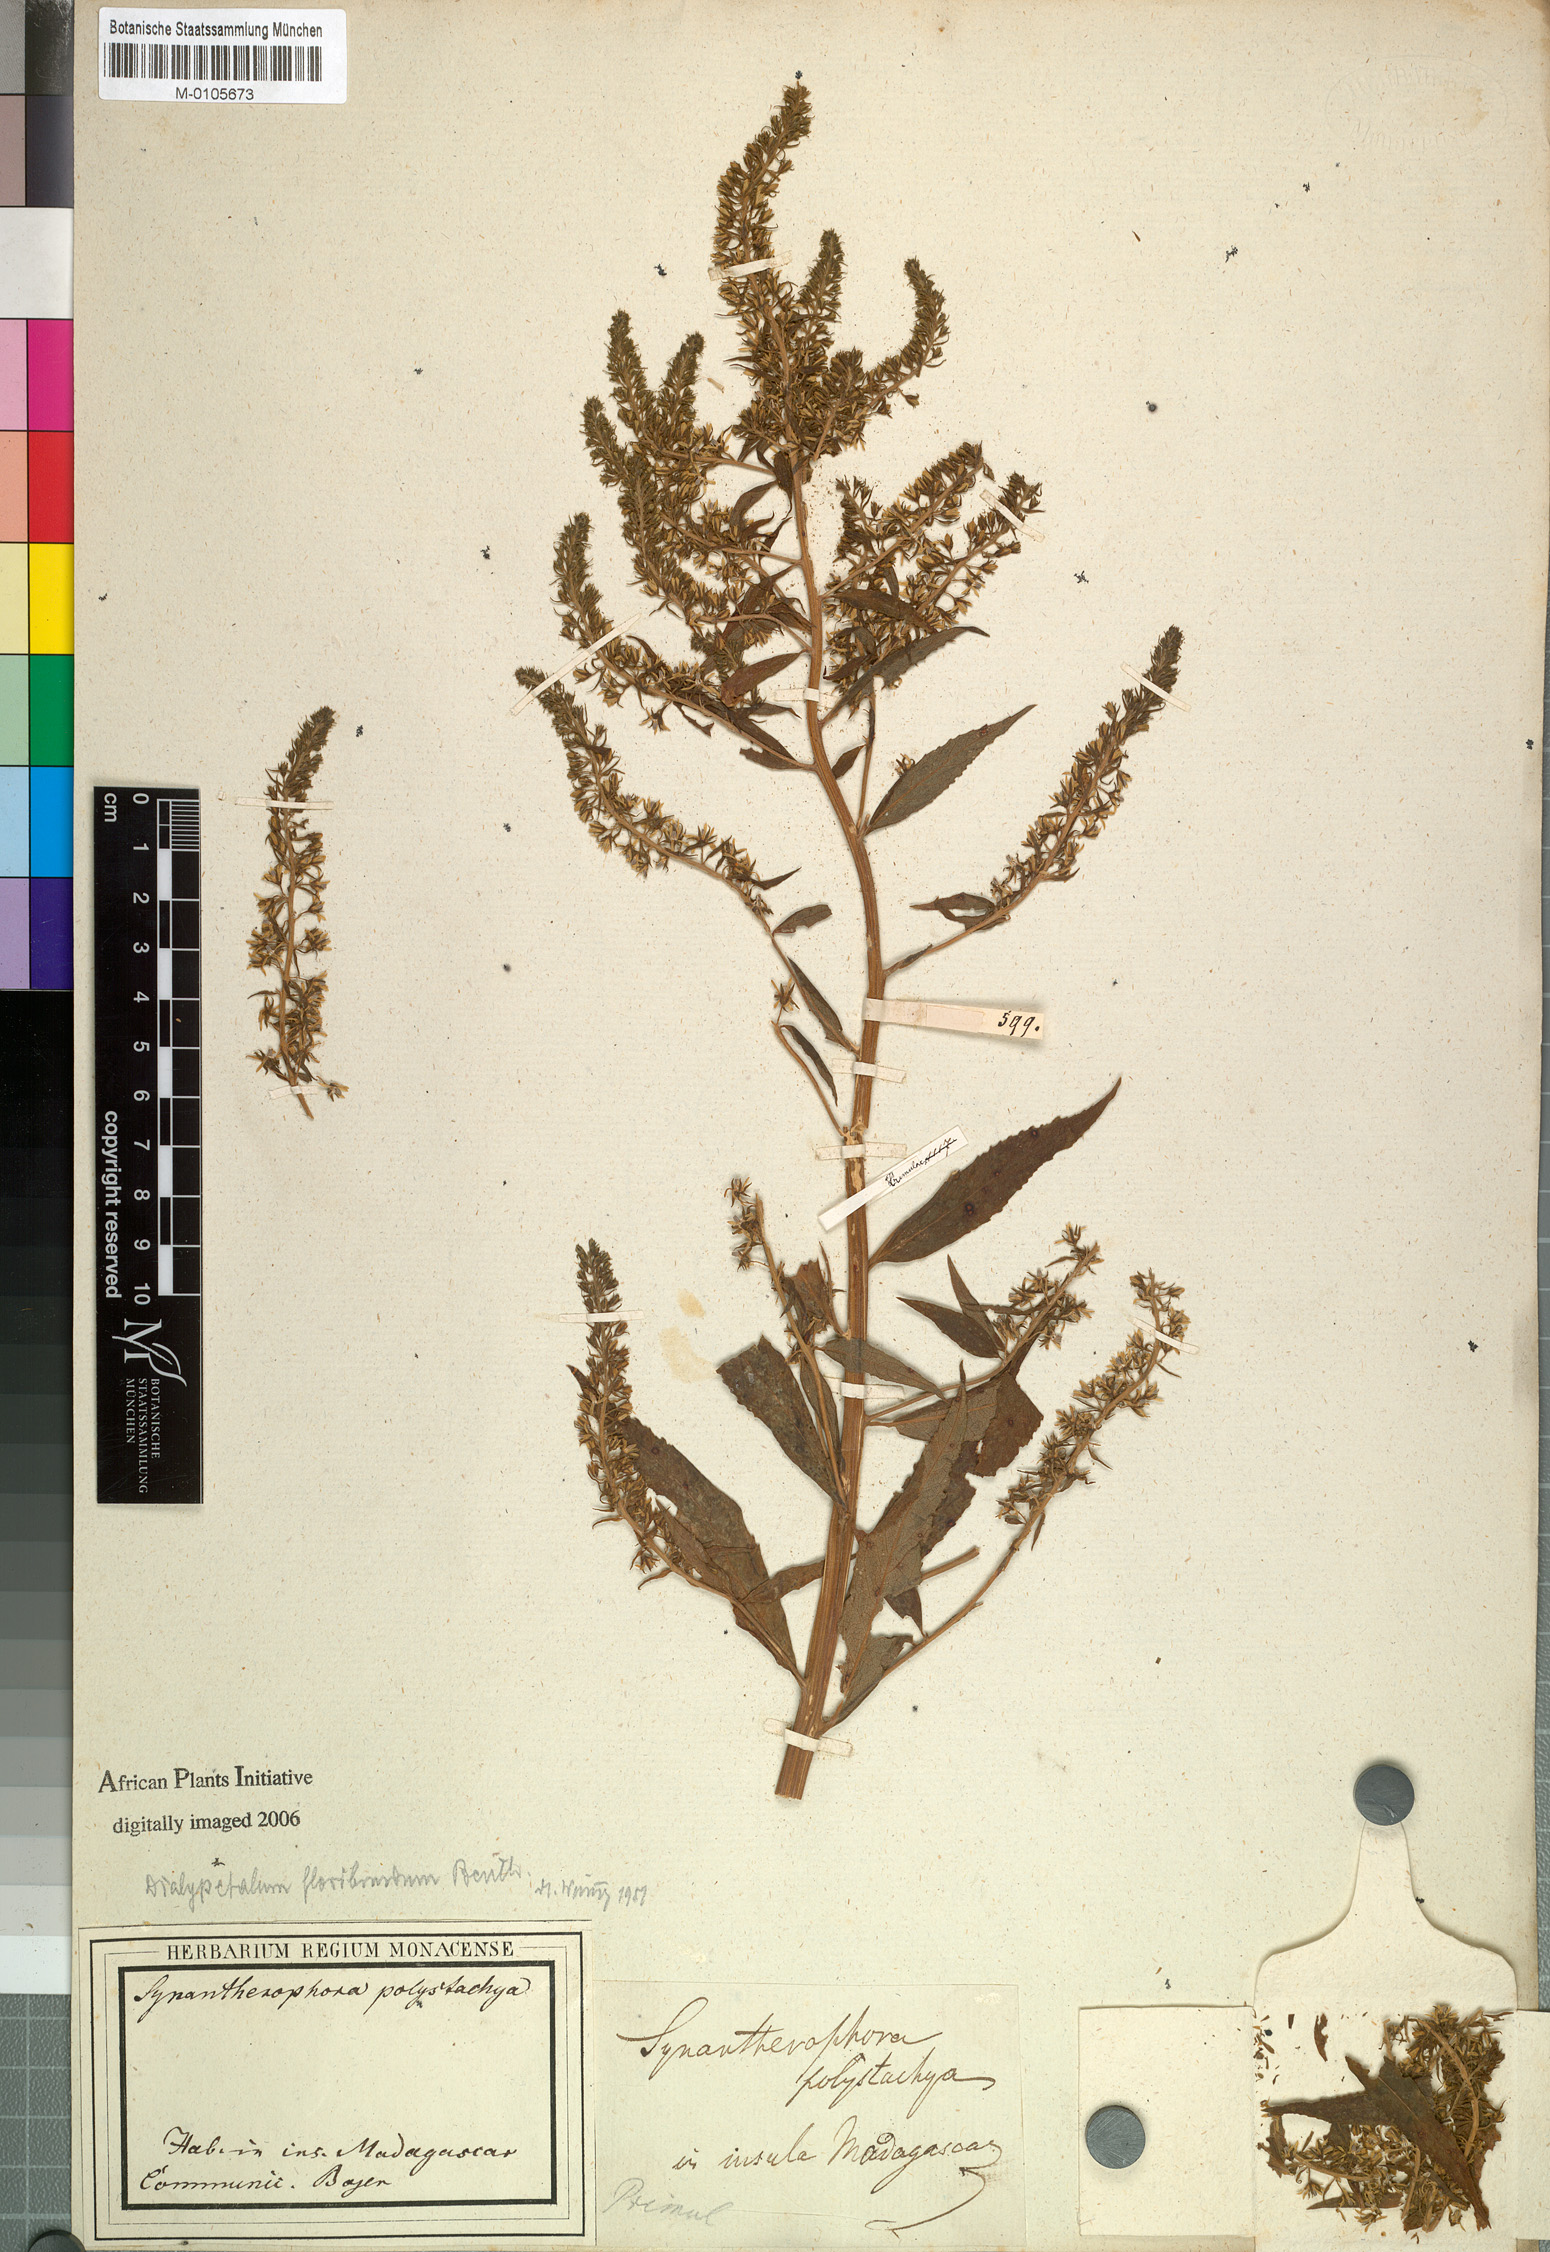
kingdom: Plantae
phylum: Tracheophyta
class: Magnoliopsida
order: Asterales
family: Campanulaceae
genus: Dialypetalum
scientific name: Dialypetalum floribundum
